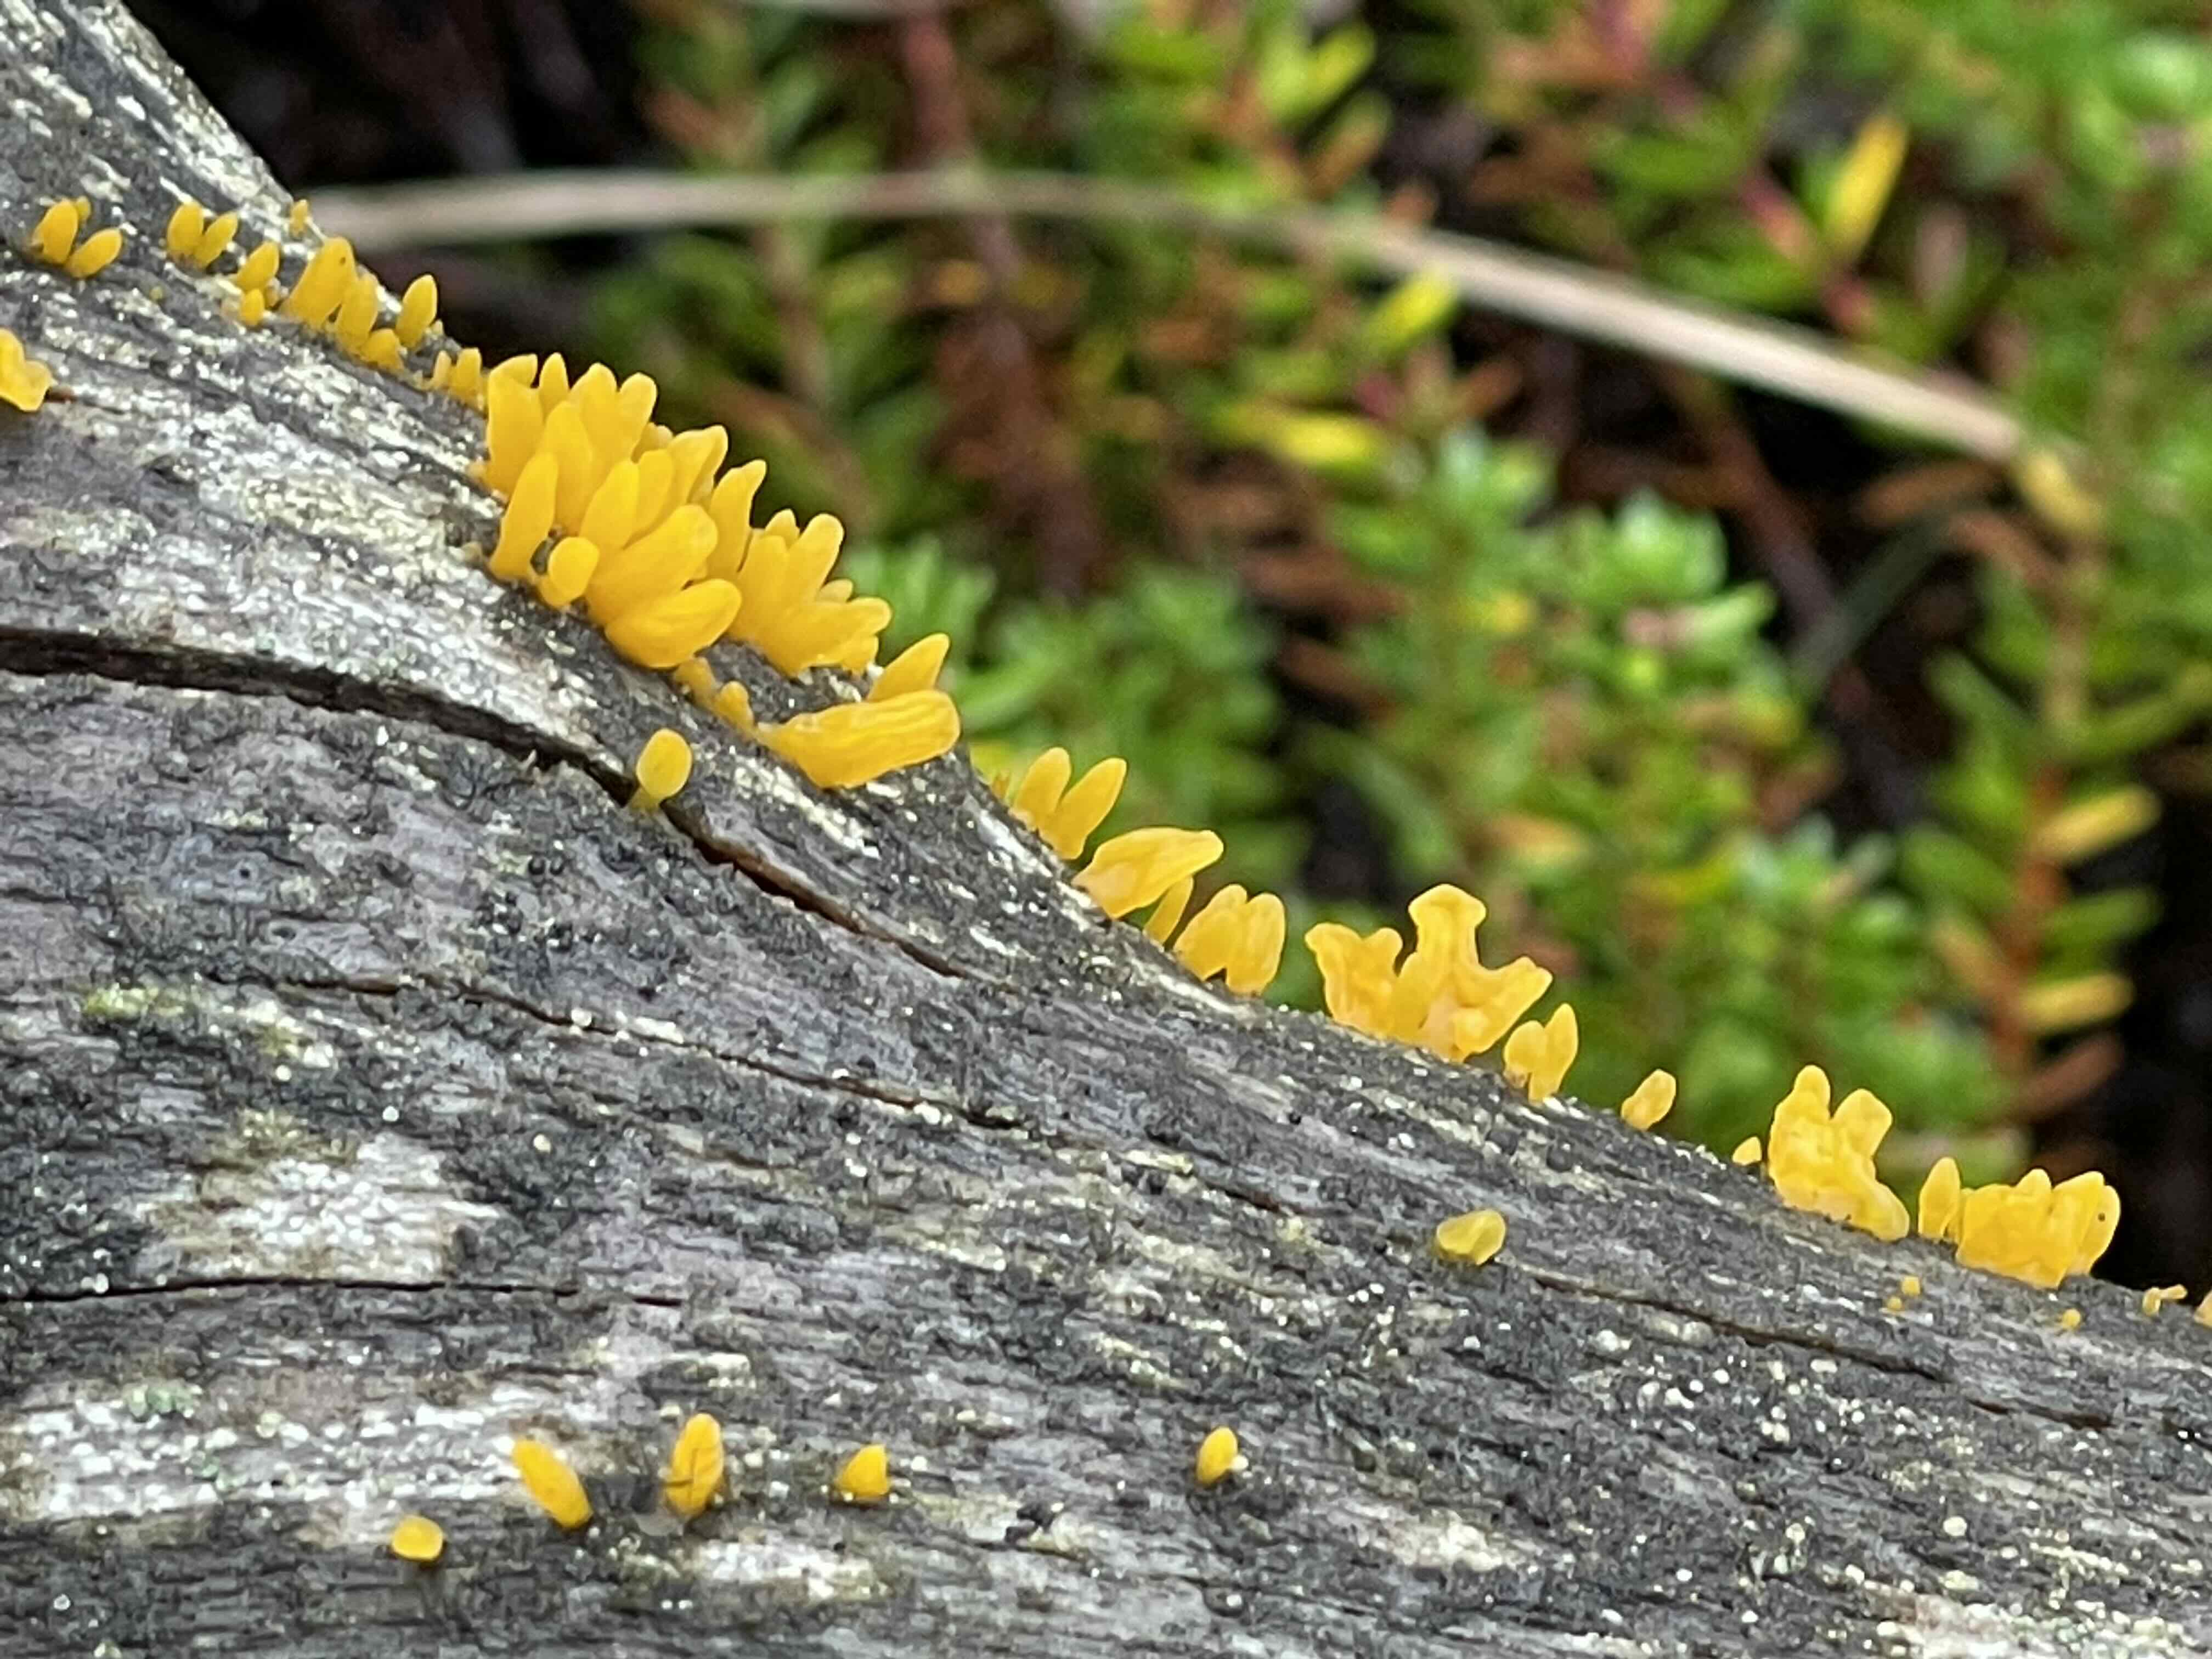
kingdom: Fungi
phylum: Basidiomycota
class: Dacrymycetes
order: Dacrymycetales
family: Dacrymycetaceae
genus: Calocera
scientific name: Calocera furcata
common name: fyrre-guldgaffel
